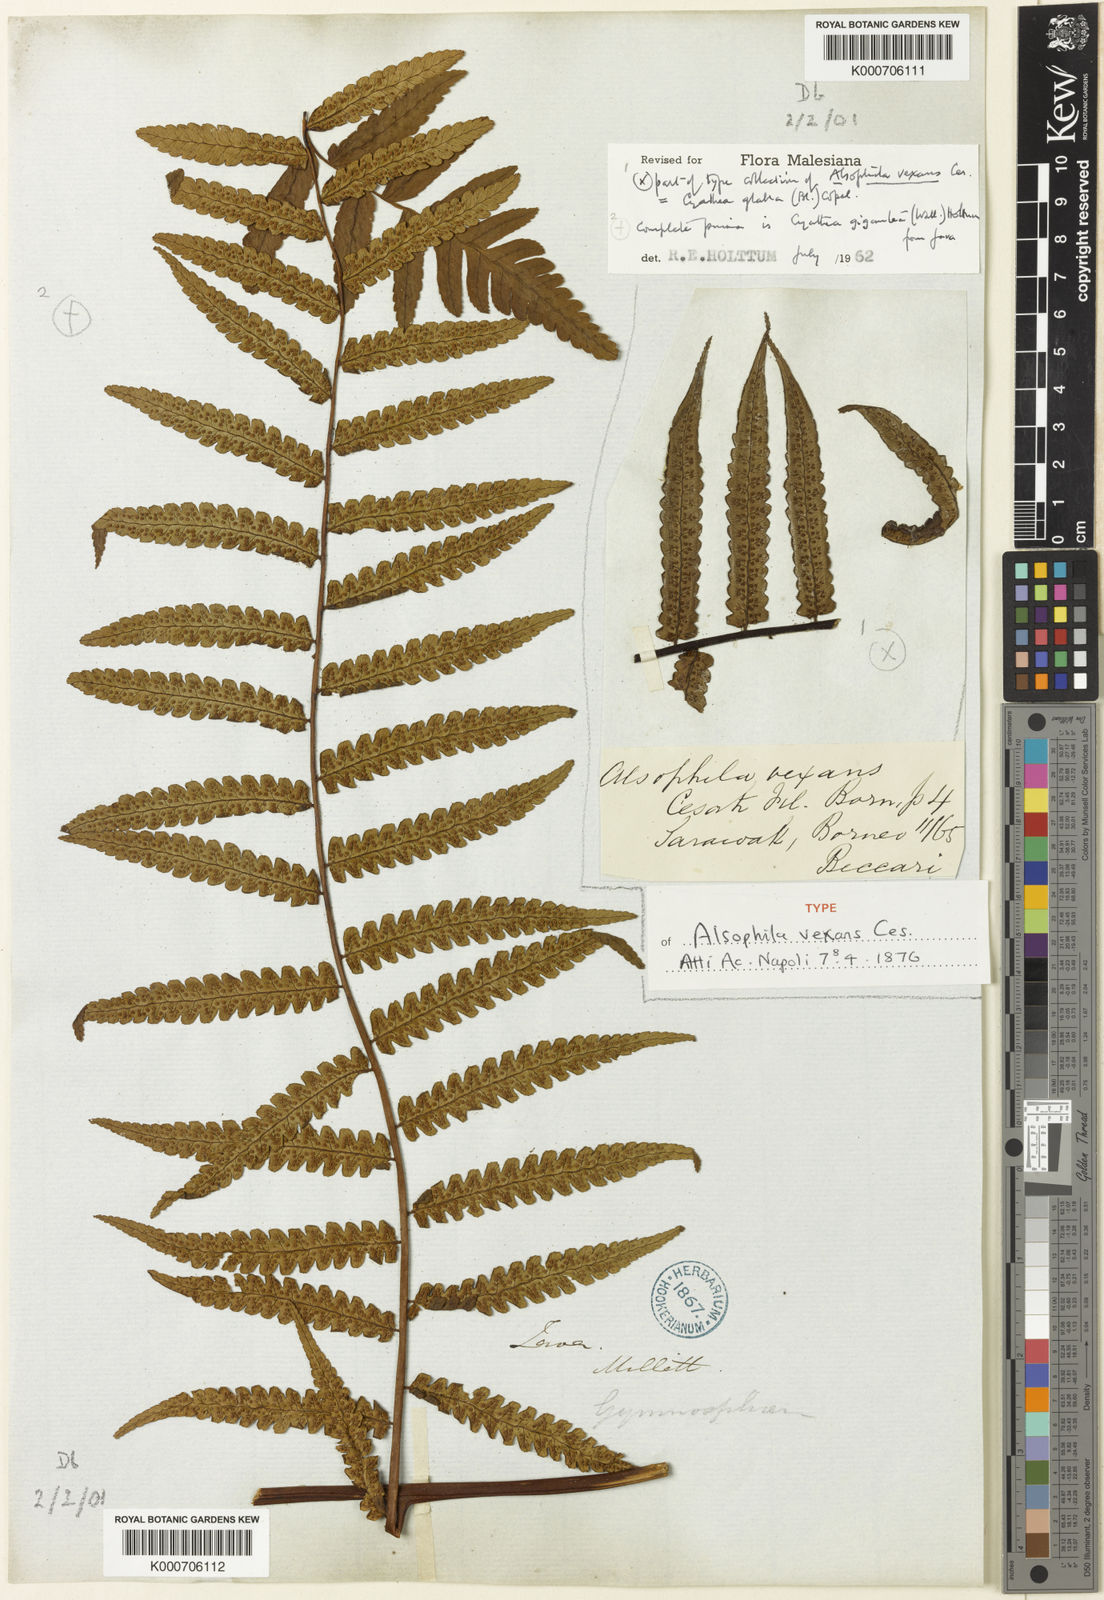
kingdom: Plantae
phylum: Tracheophyta
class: Polypodiopsida
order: Cyatheales
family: Cyatheaceae
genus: Gymnosphaera
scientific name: Gymnosphaera glabra
